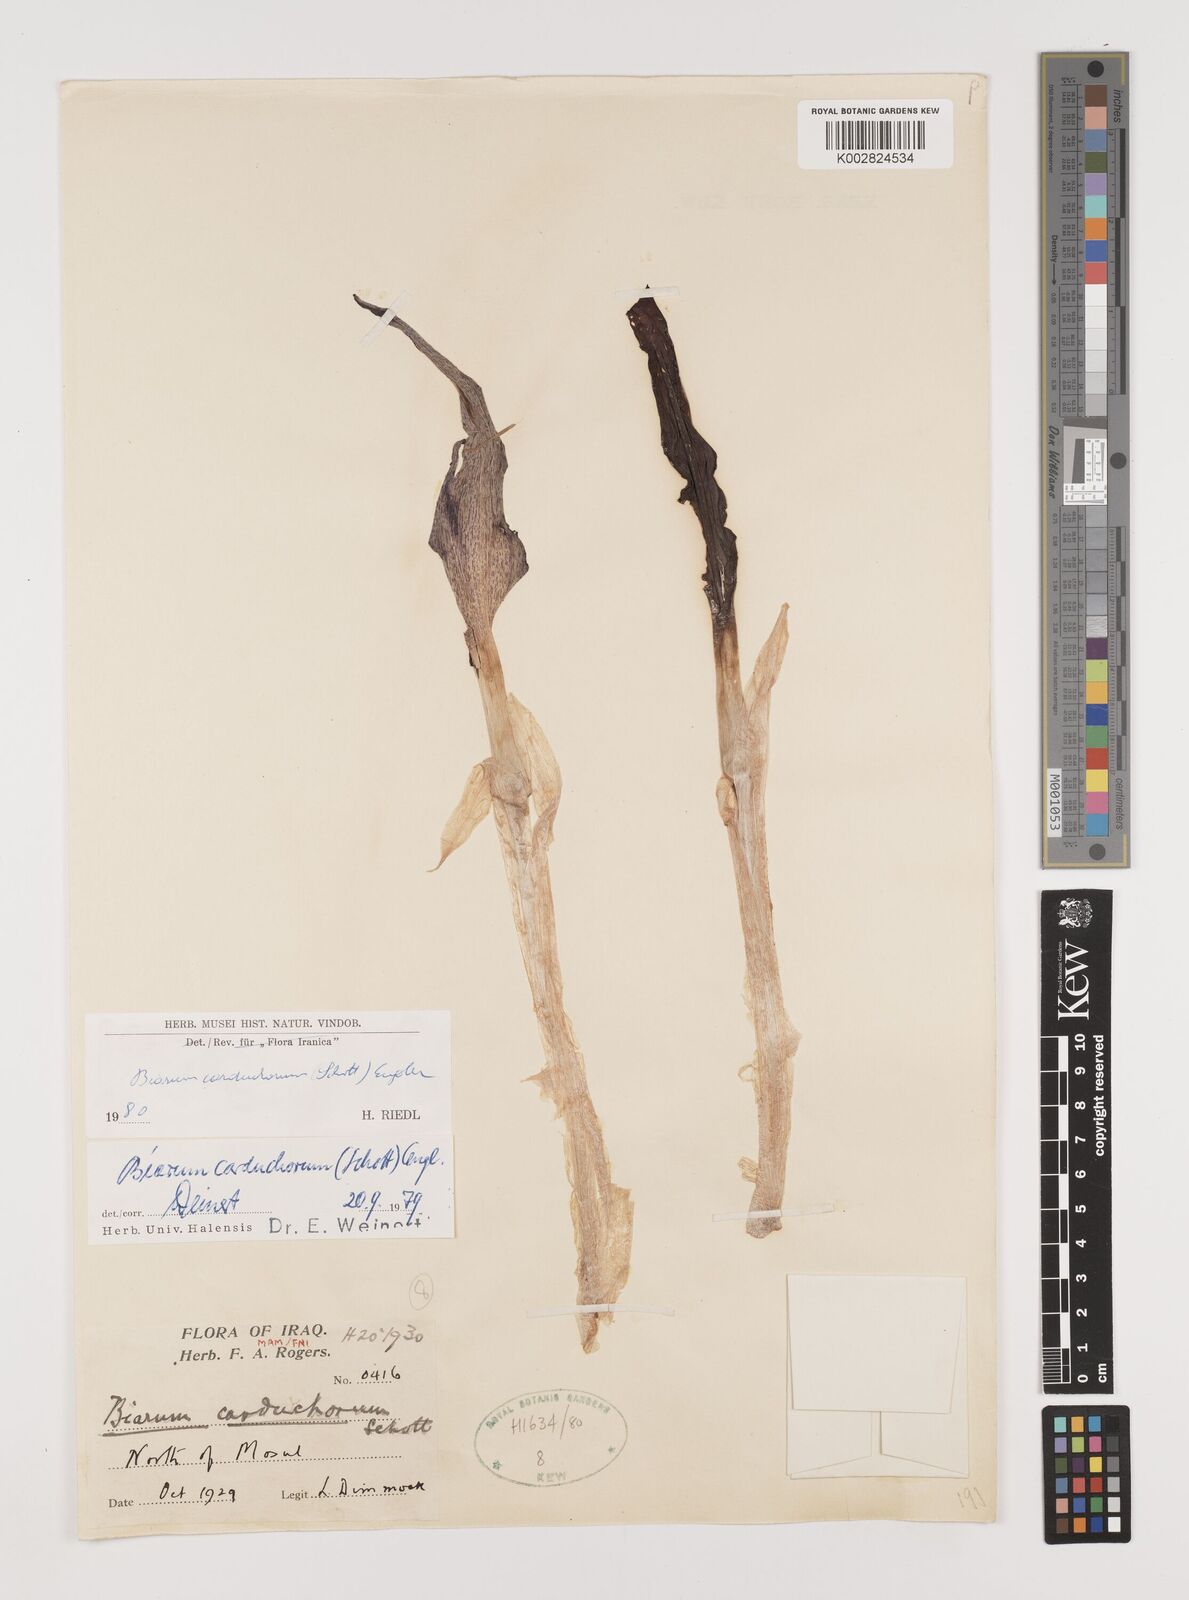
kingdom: Plantae
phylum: Tracheophyta
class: Liliopsida
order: Alismatales
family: Araceae
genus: Biarum
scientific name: Biarum carduchorum
